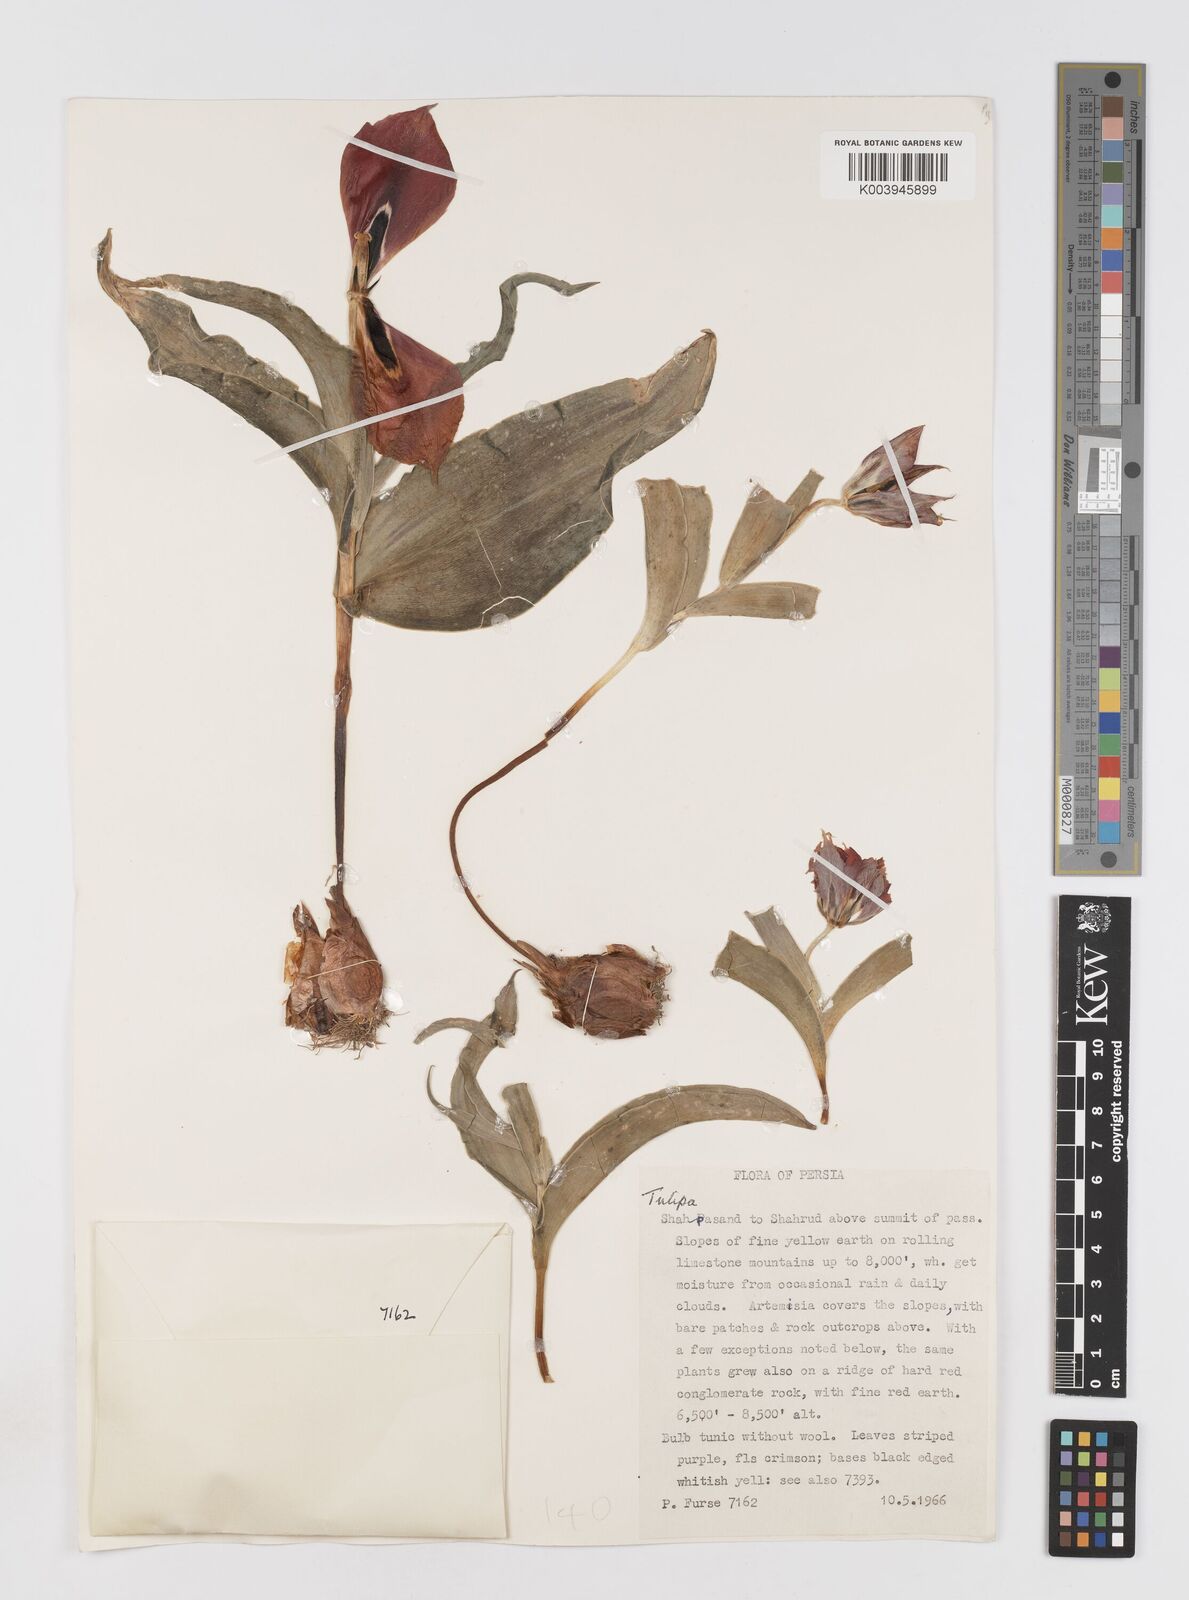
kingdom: Plantae
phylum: Tracheophyta
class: Liliopsida
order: Liliales
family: Liliaceae
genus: Tulipa
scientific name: Tulipa undulatifolia
